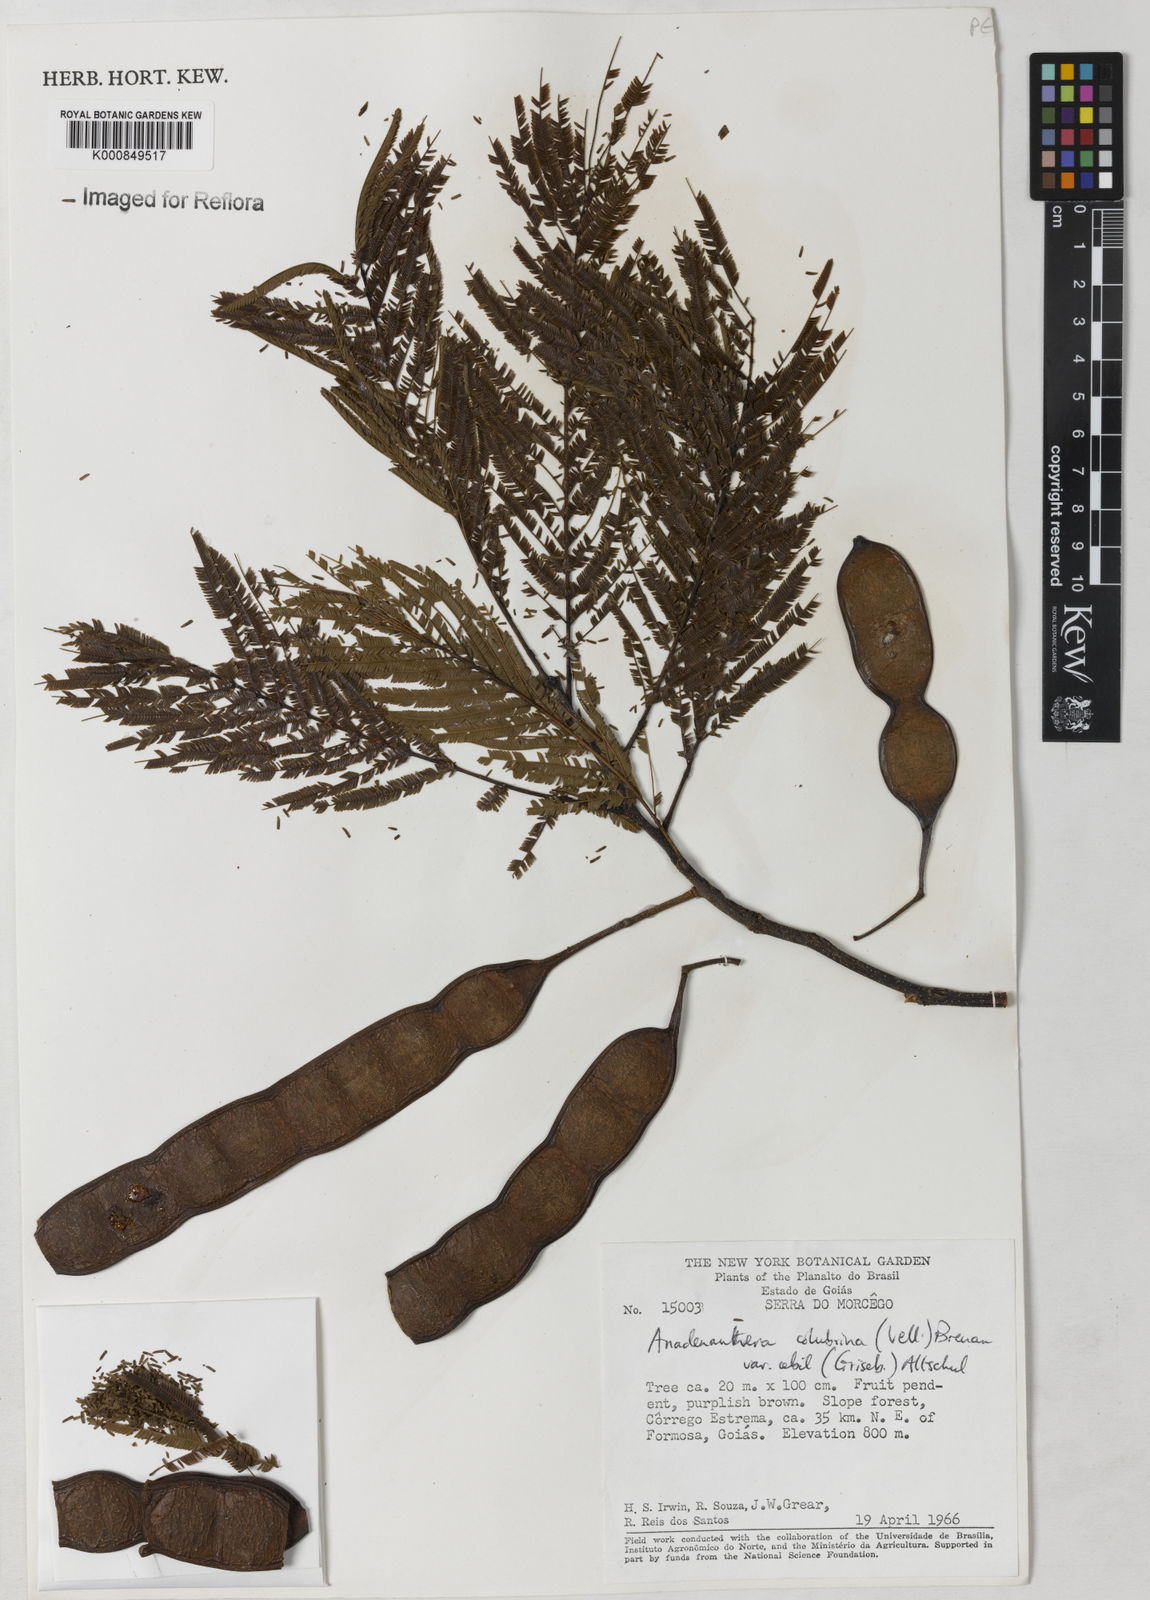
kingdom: Plantae
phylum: Tracheophyta
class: Magnoliopsida
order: Fabales
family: Fabaceae
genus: Anadenanthera
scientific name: Anadenanthera colubrina
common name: Curupay
